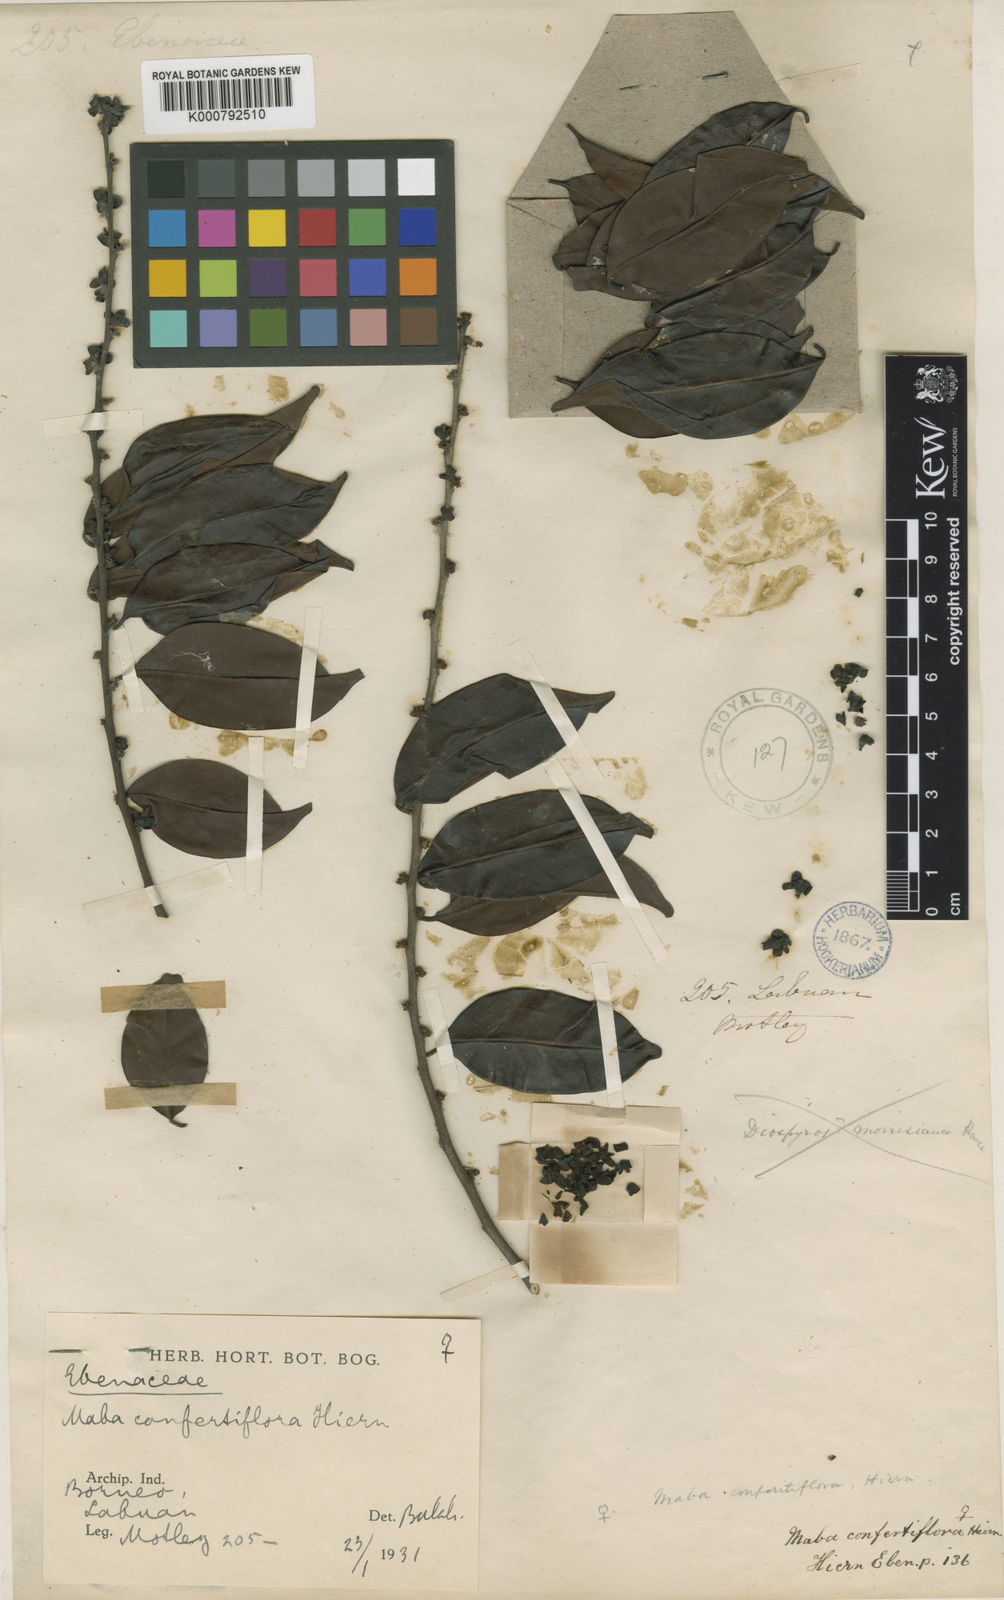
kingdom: Plantae
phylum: Tracheophyta
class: Magnoliopsida
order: Ericales
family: Ebenaceae
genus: Diospyros
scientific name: Diospyros confertiflora
